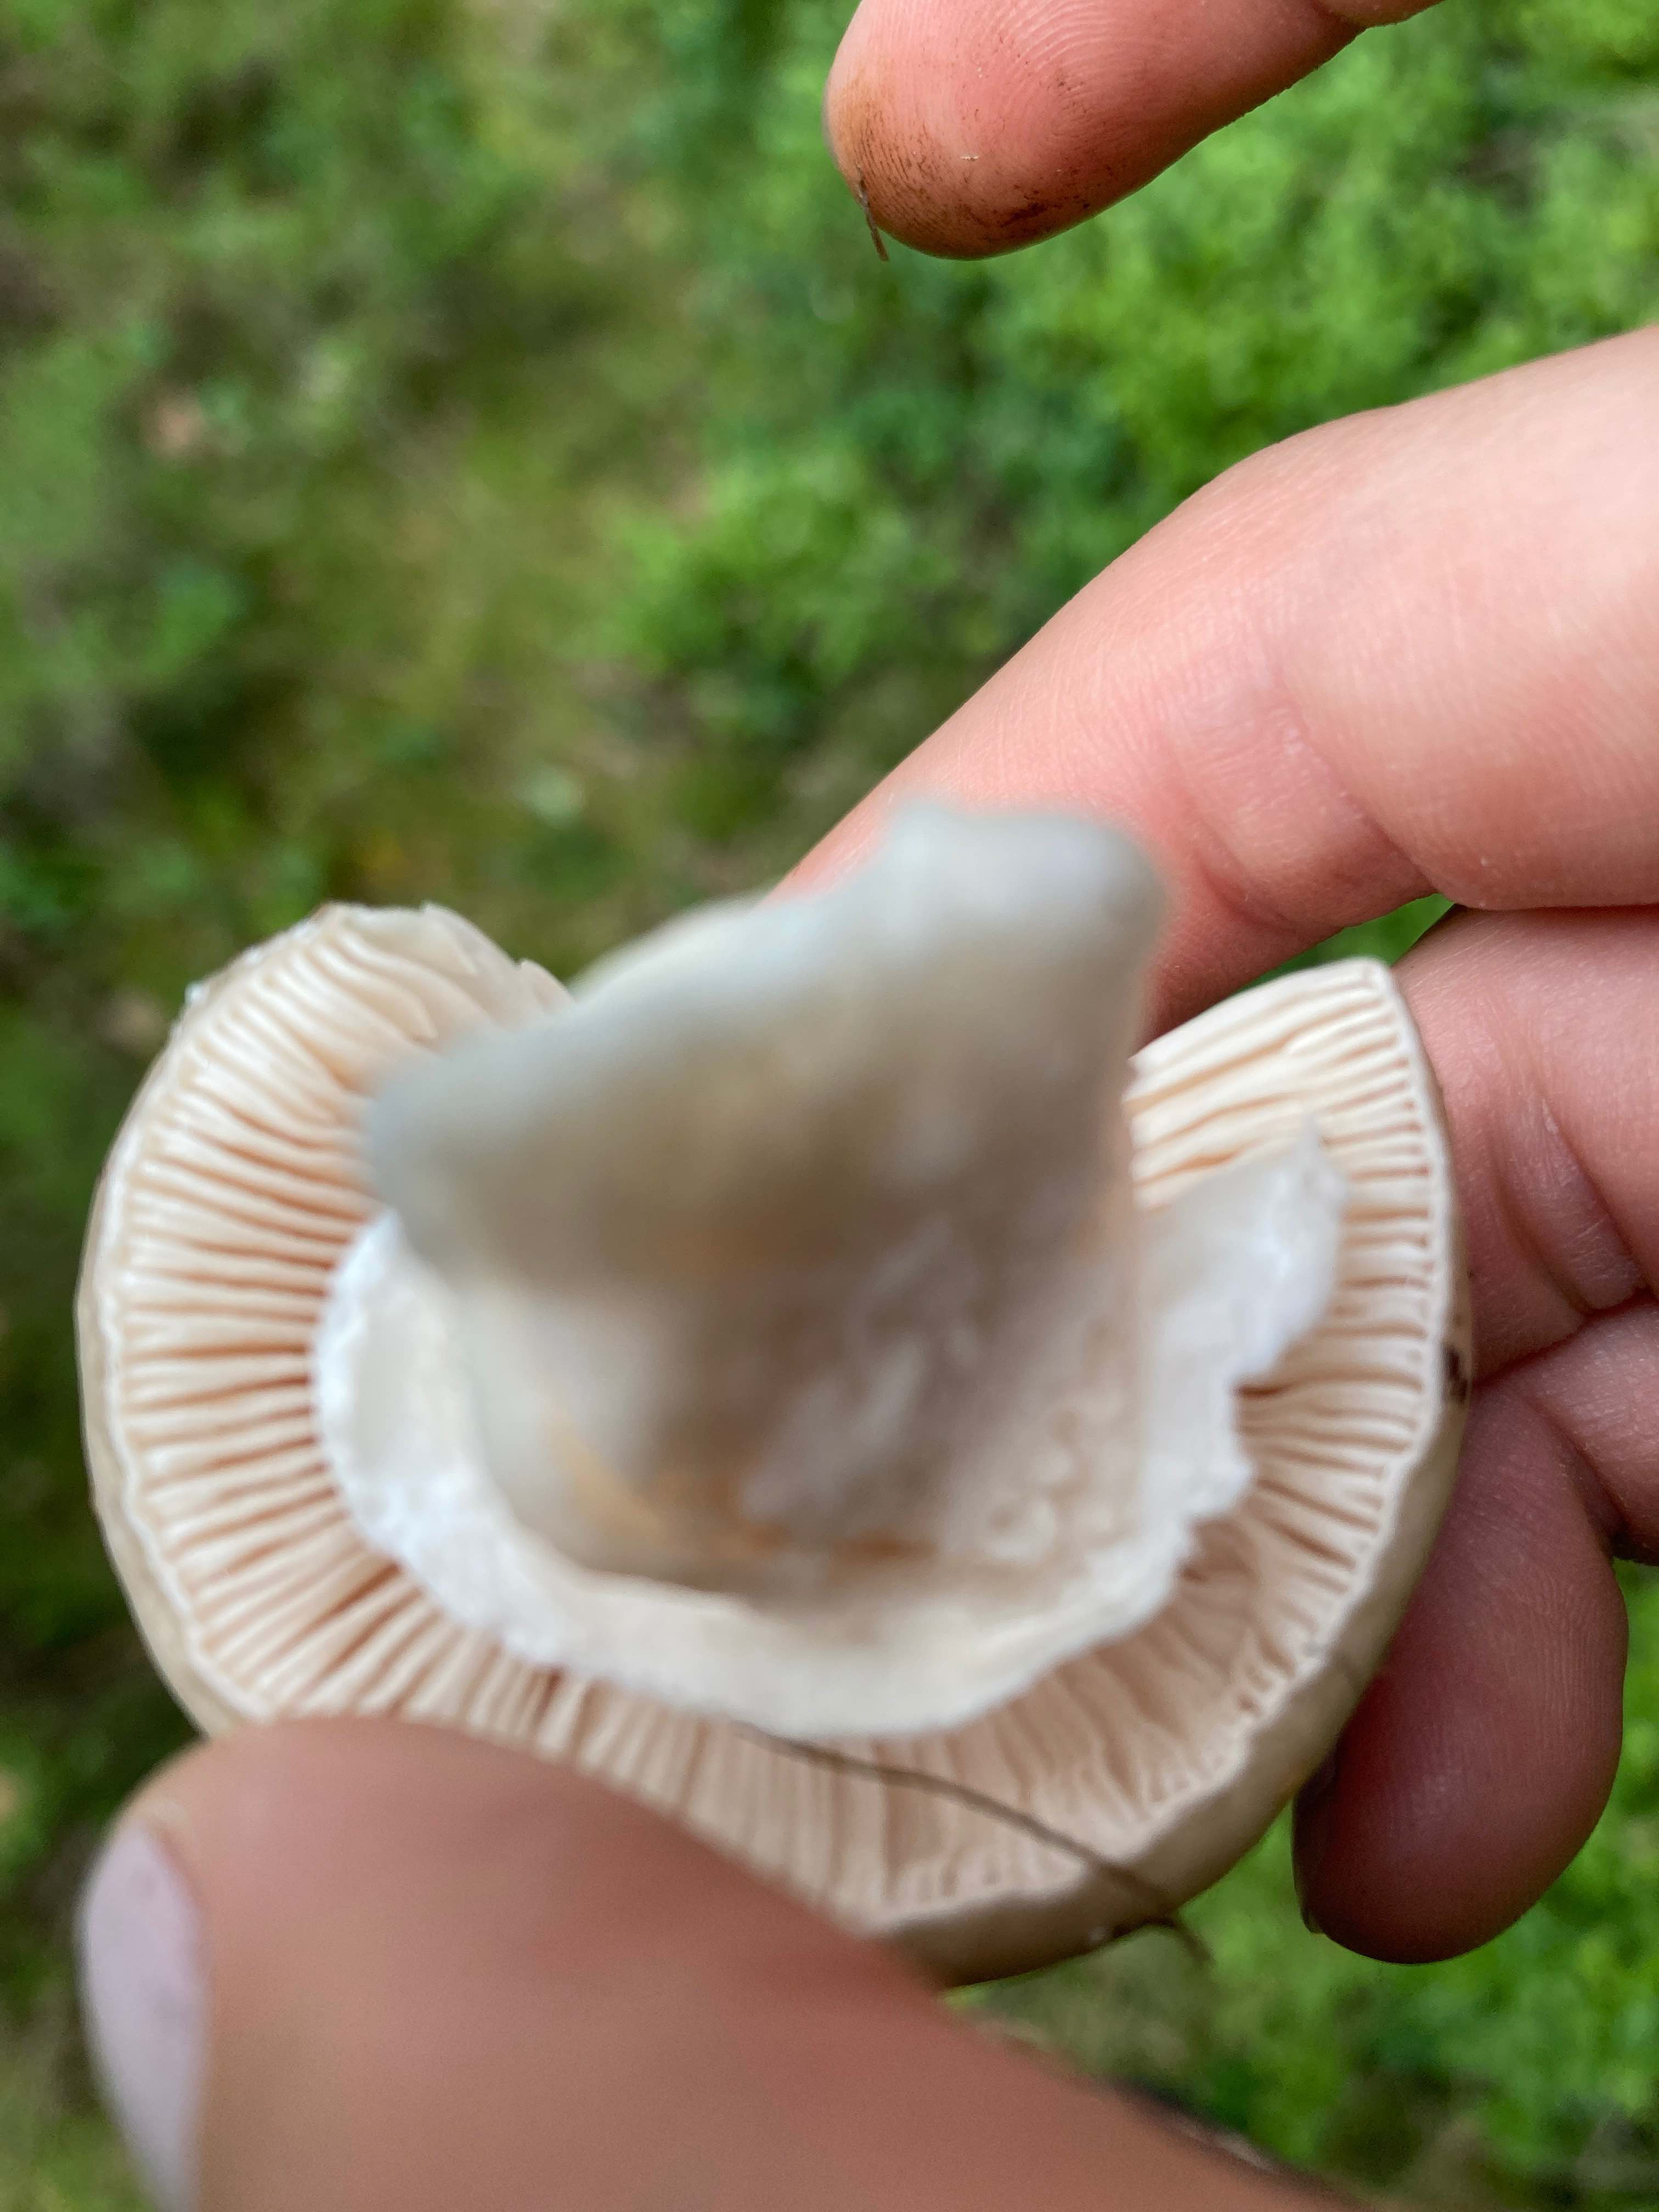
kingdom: Fungi
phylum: Basidiomycota
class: Agaricomycetes
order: Agaricales
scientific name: Agaricales
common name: champignonordenen
